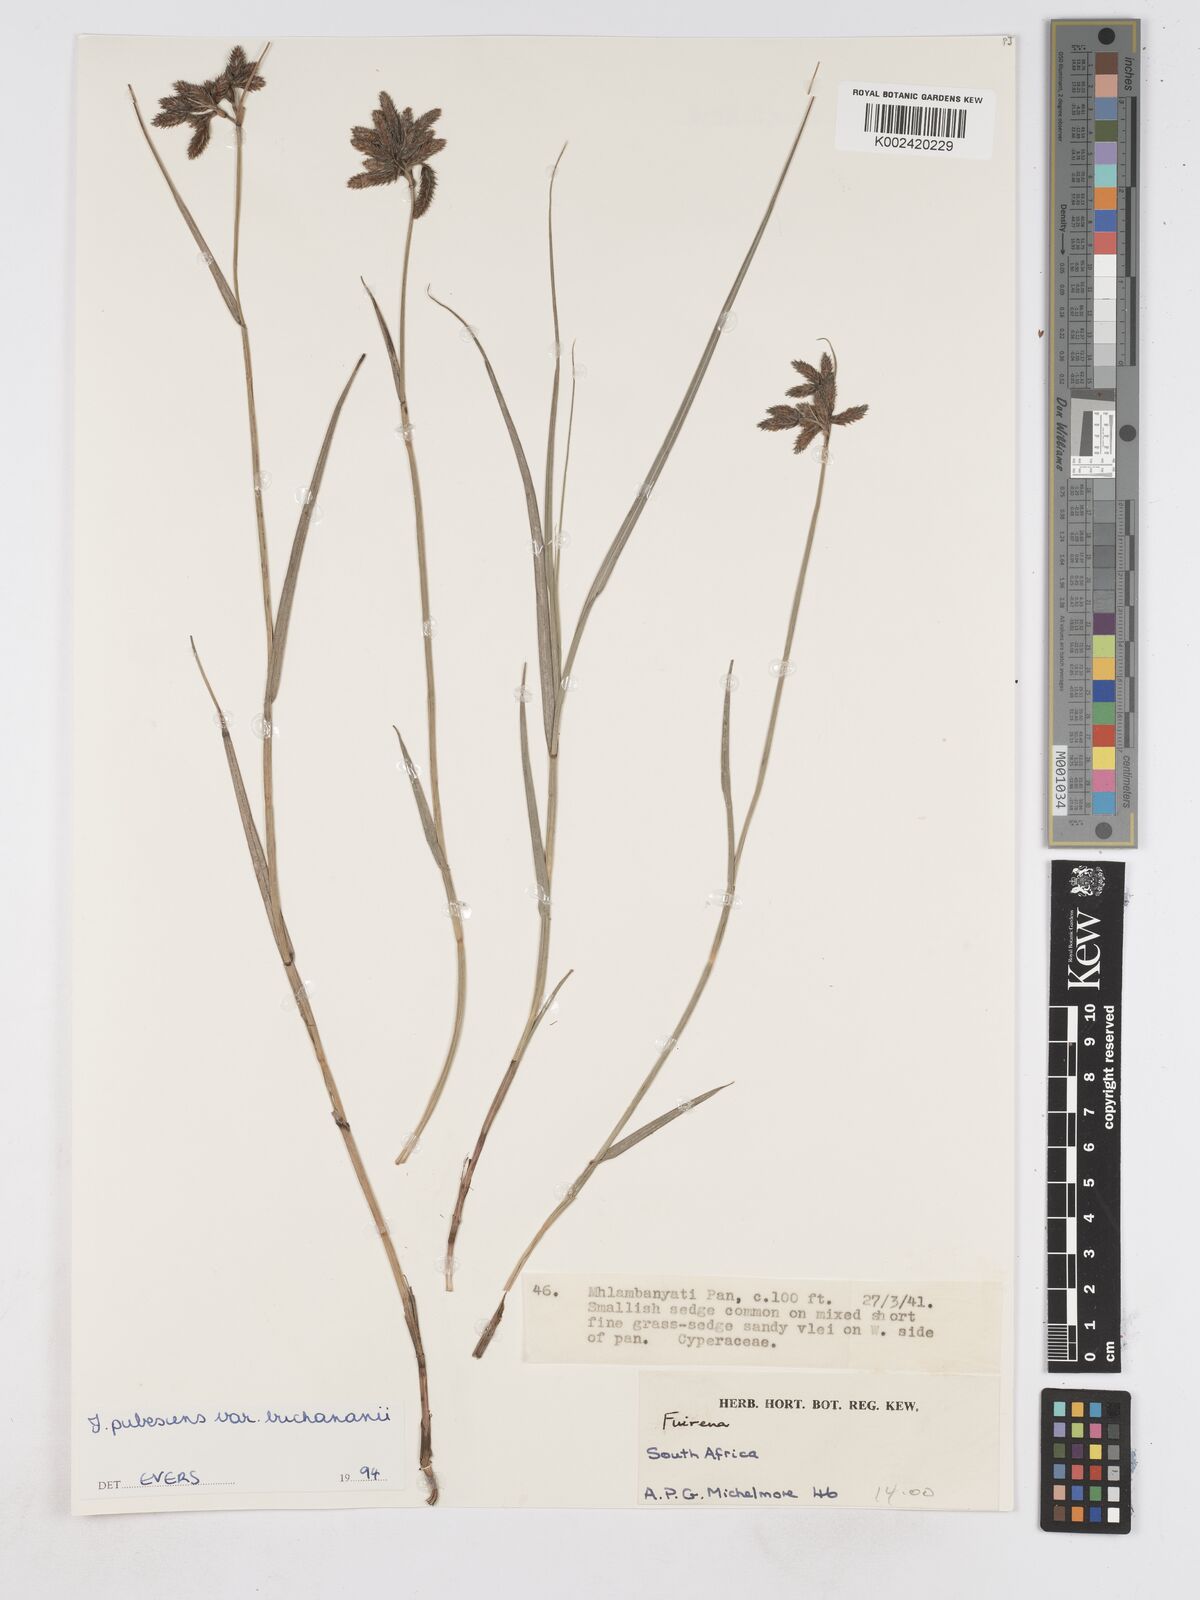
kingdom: Plantae
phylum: Tracheophyta
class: Liliopsida
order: Poales
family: Cyperaceae
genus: Fuirena
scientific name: Fuirena pachyrrhiza
